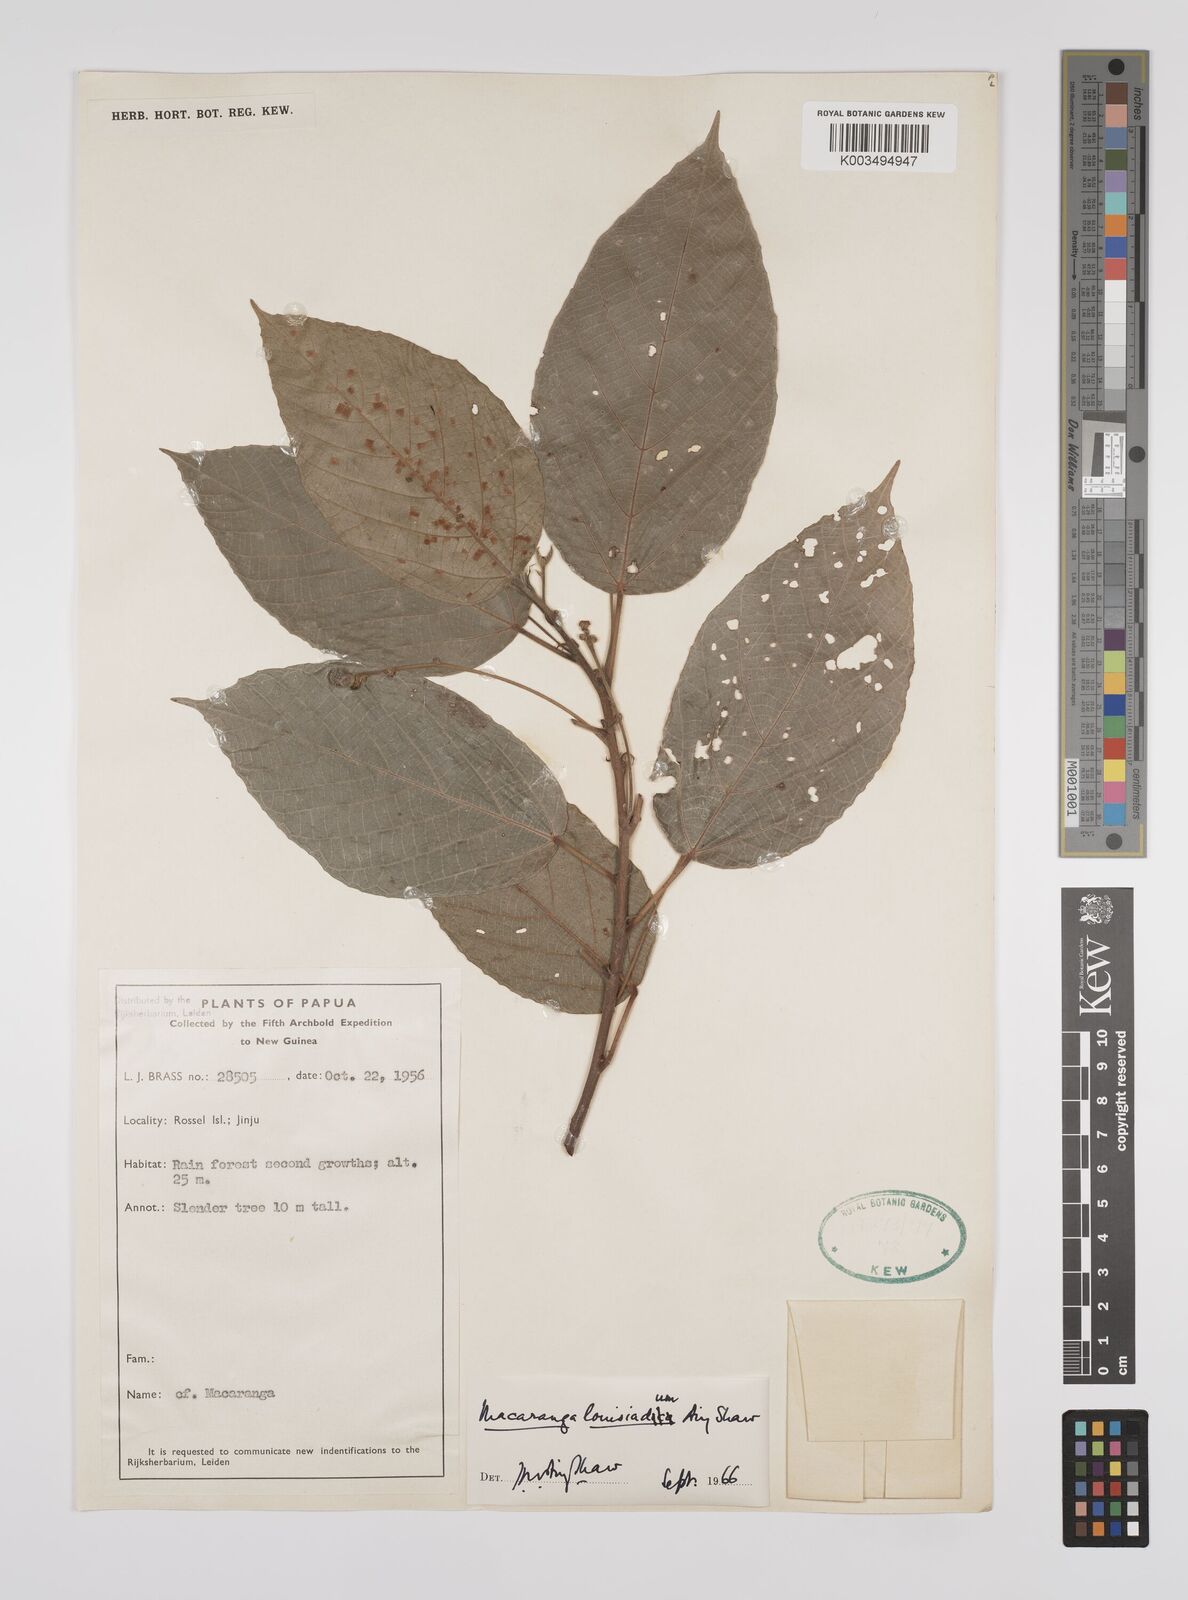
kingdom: Plantae
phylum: Tracheophyta
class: Magnoliopsida
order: Malpighiales
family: Euphorbiaceae
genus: Macaranga
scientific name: Macaranga louisiadum
